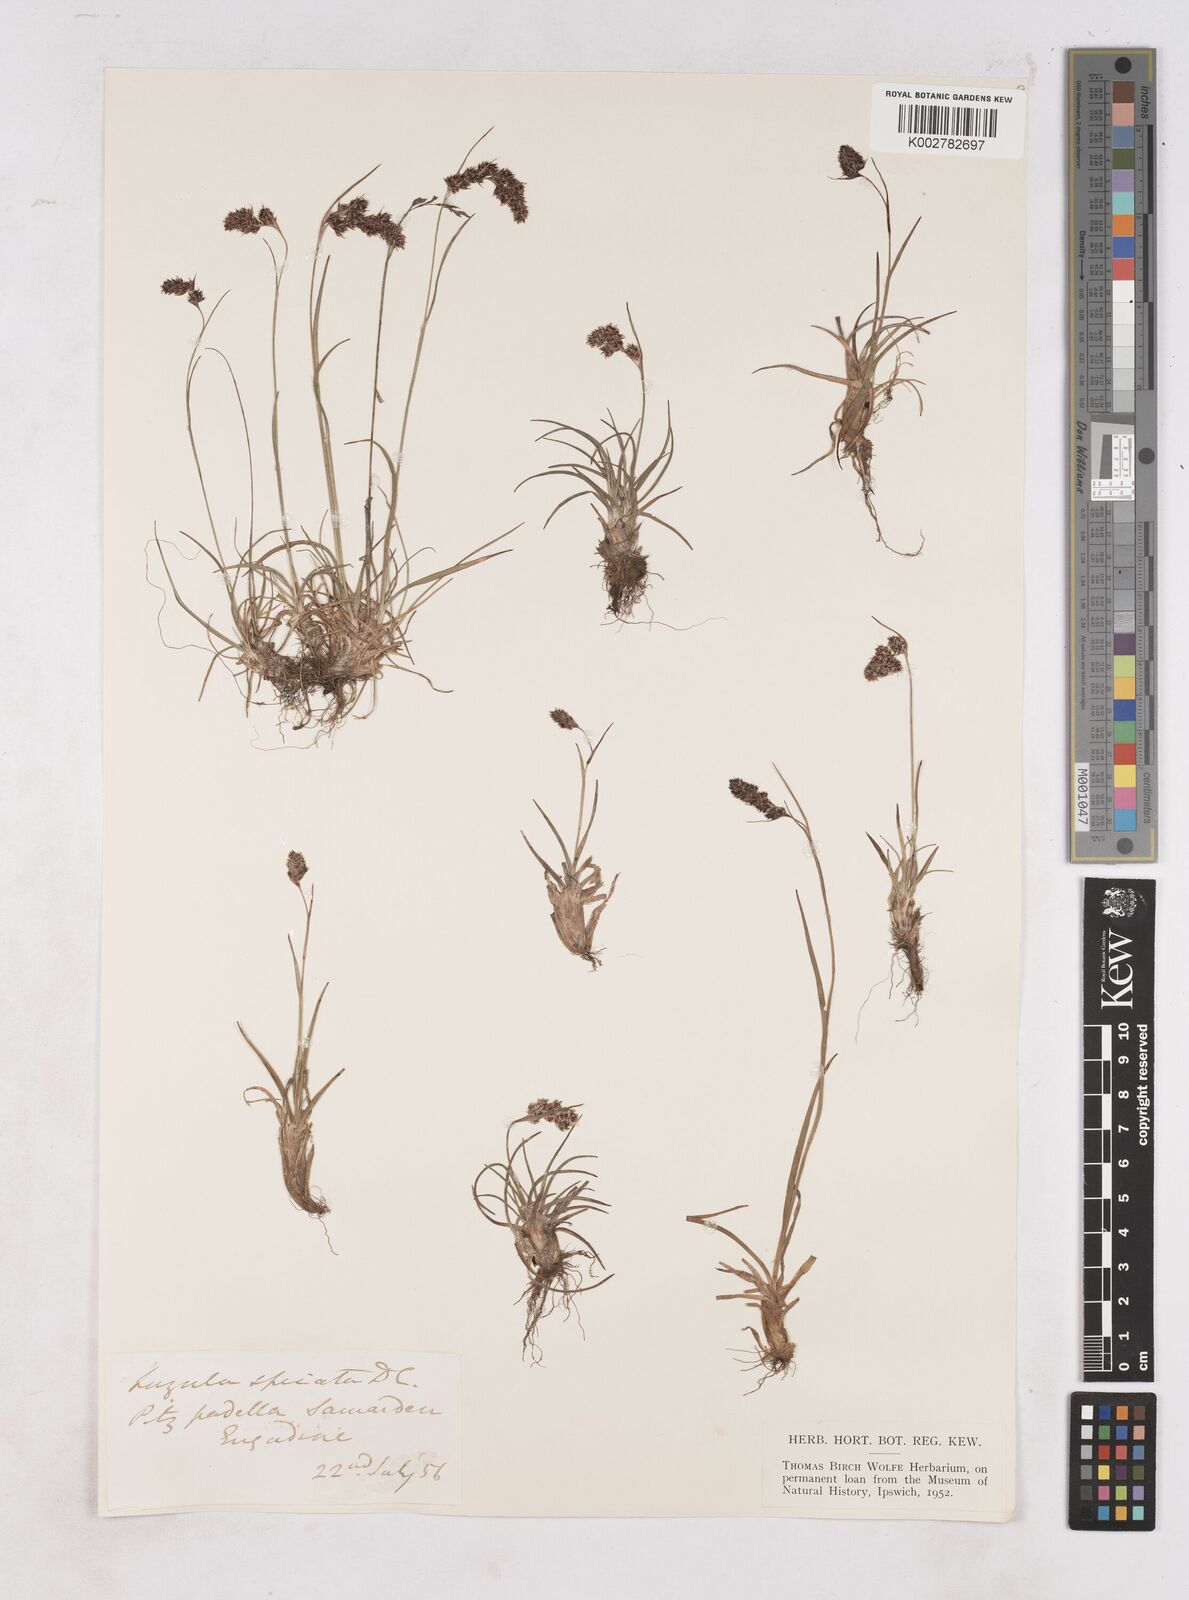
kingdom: Plantae
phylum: Tracheophyta
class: Liliopsida
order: Poales
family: Juncaceae
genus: Luzula
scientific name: Luzula spicata
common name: Spiked wood-rush
